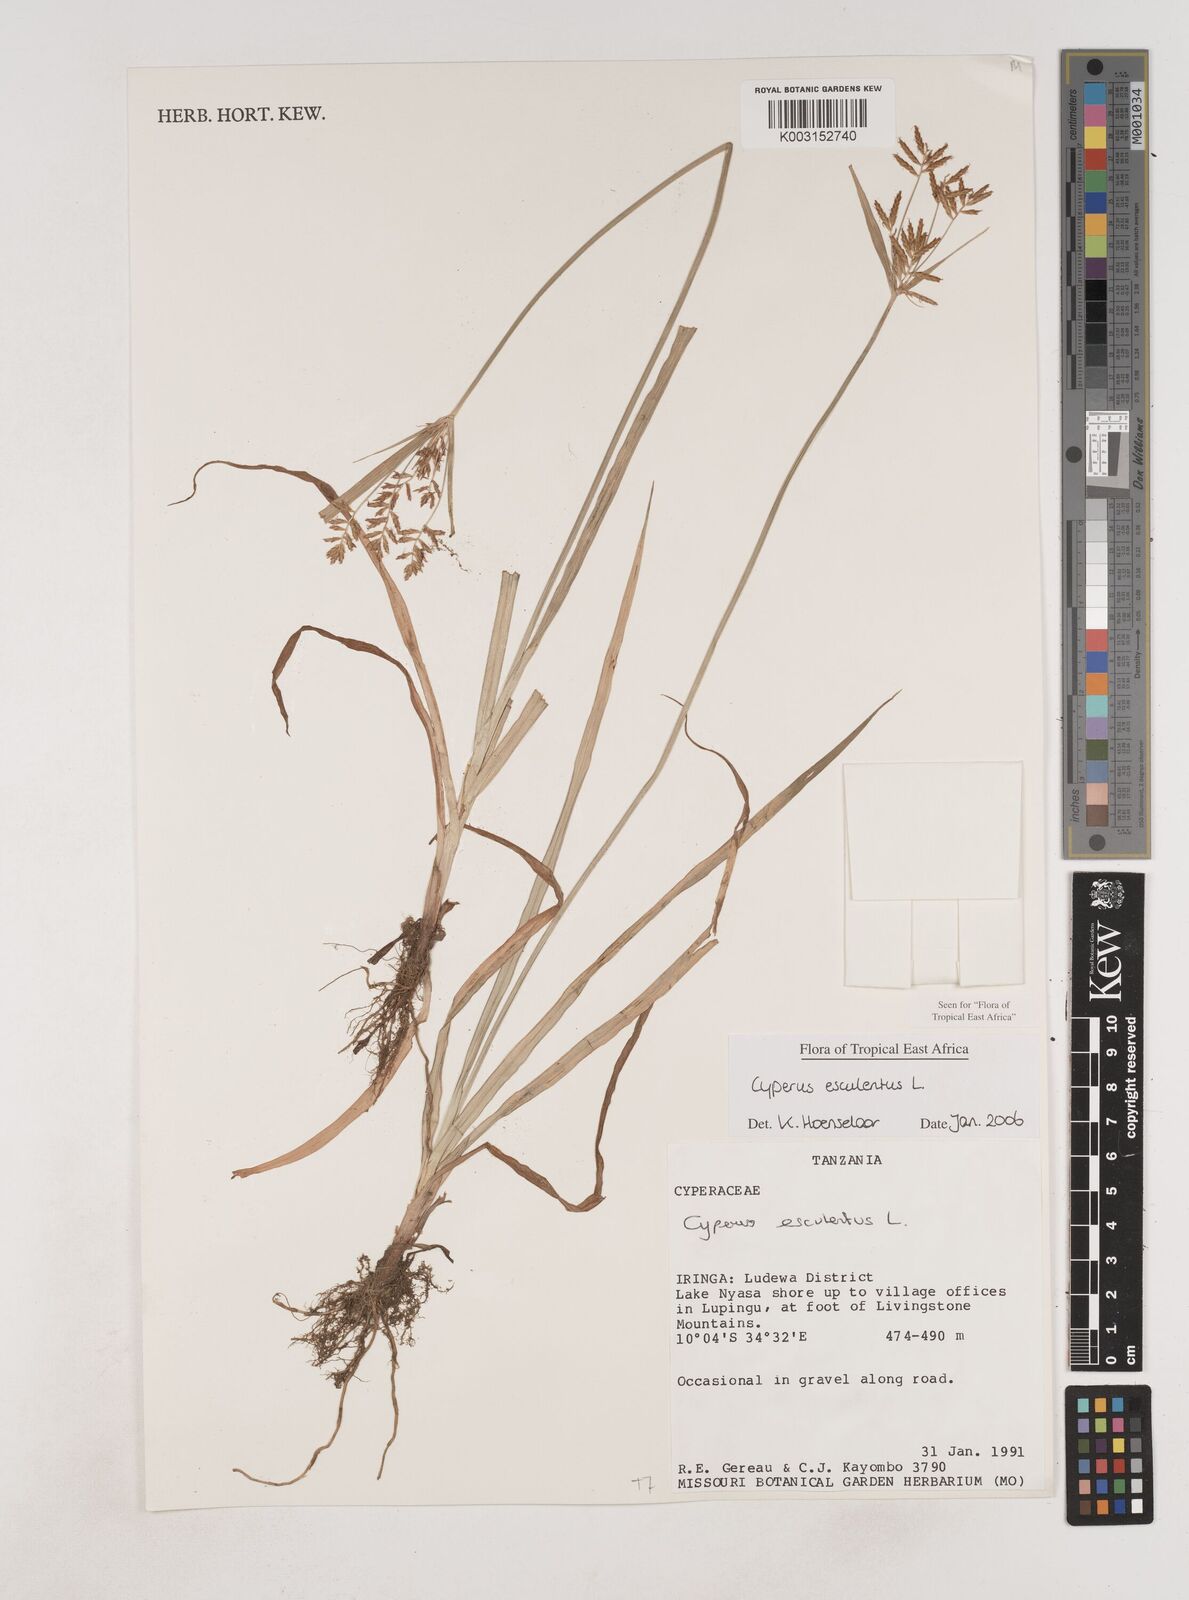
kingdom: Plantae
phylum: Tracheophyta
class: Liliopsida
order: Poales
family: Cyperaceae
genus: Cyperus
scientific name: Cyperus esculentus
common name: Yellow nutsedge
